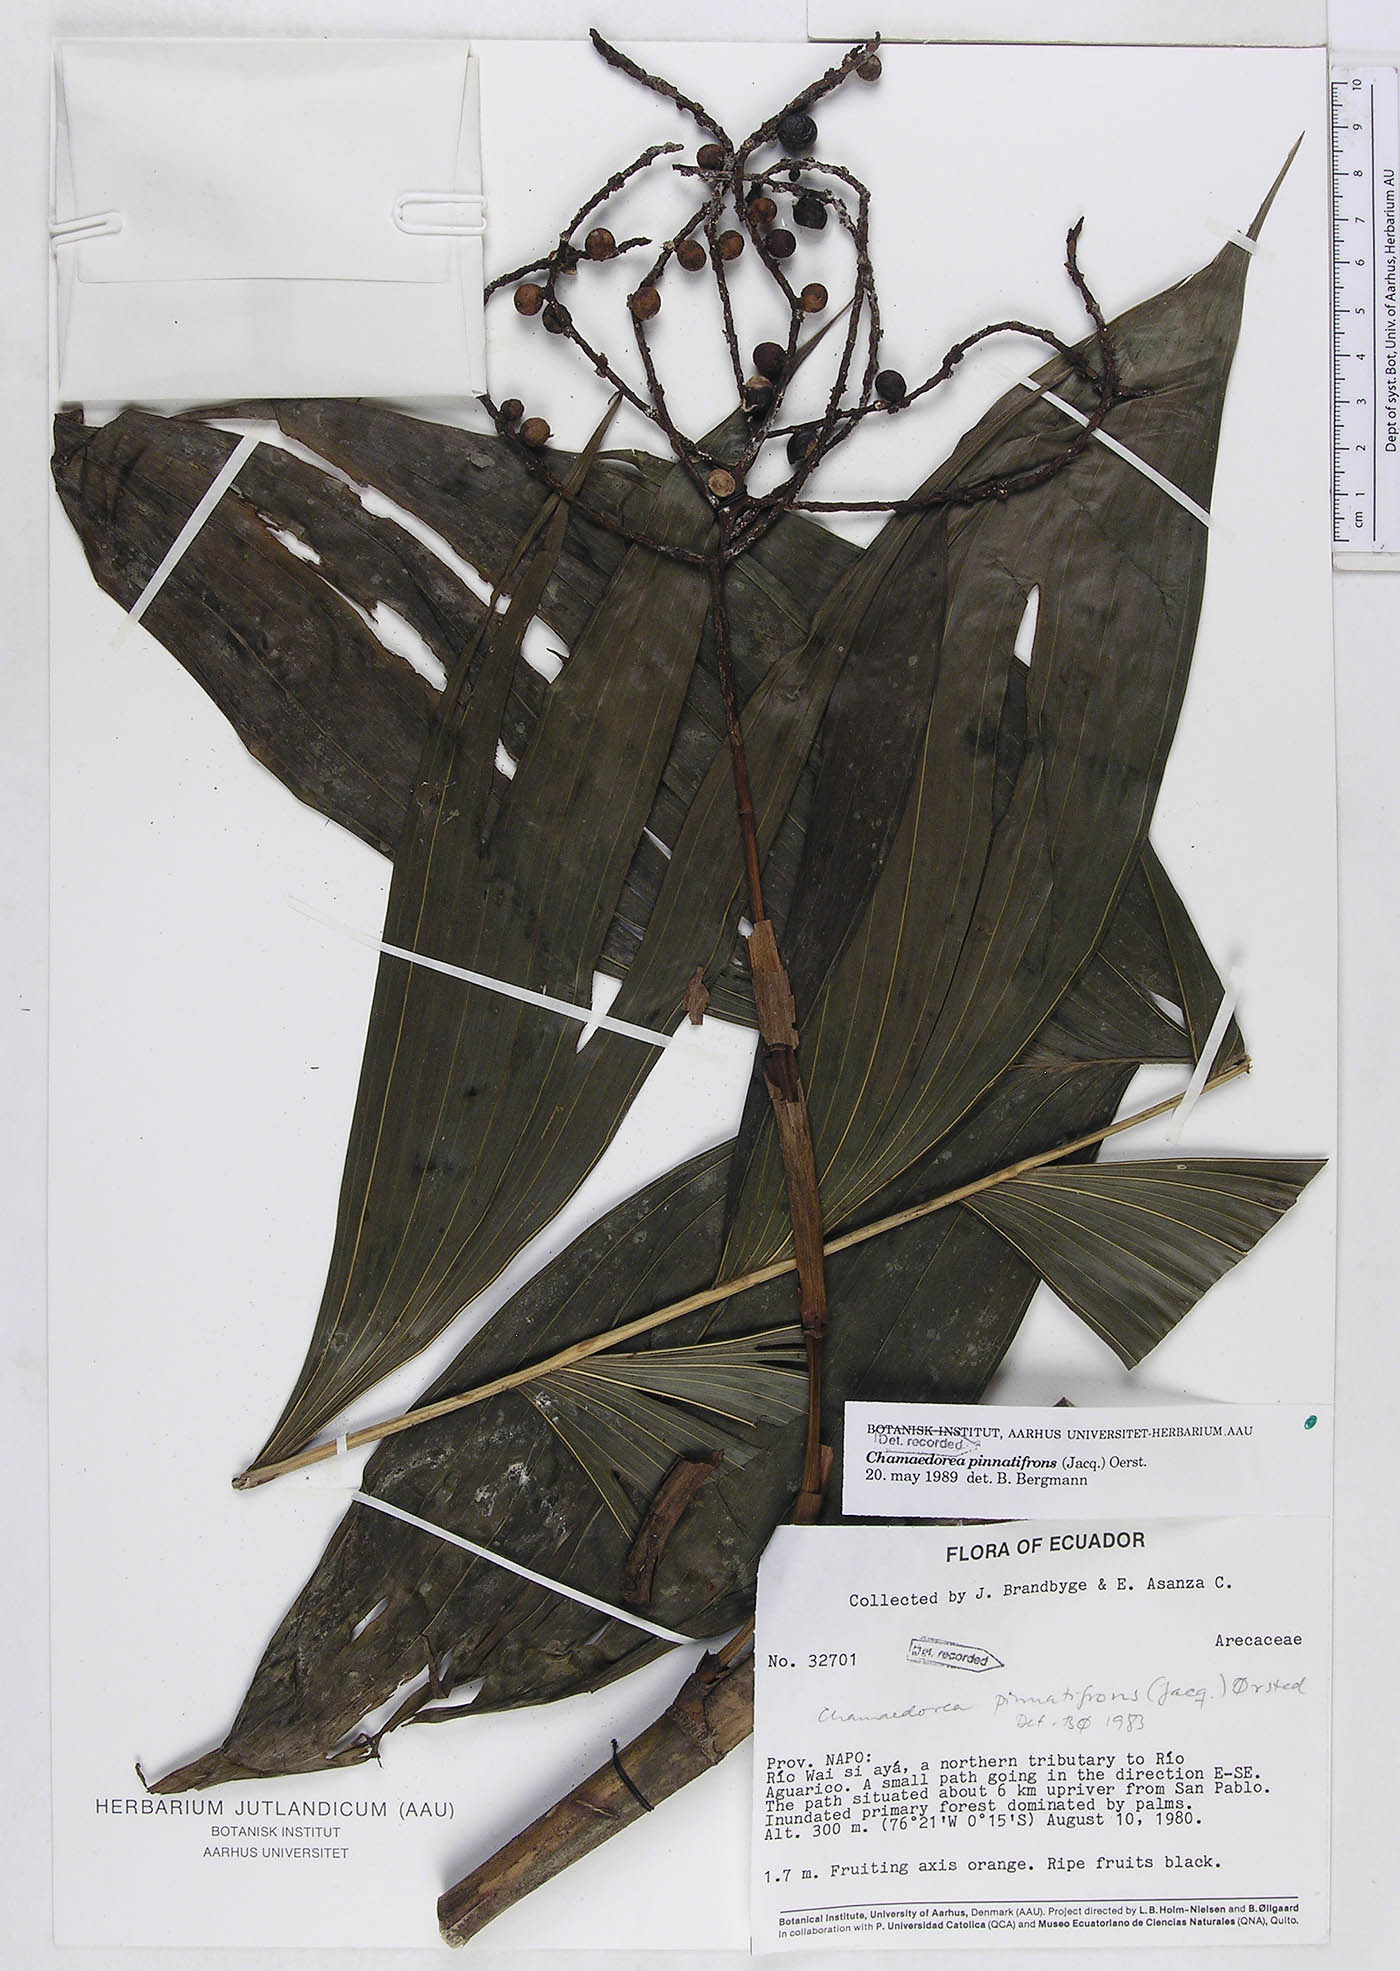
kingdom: Plantae
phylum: Tracheophyta
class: Liliopsida
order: Arecales
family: Arecaceae
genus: Chamaedorea
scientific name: Chamaedorea pinnatifrons
